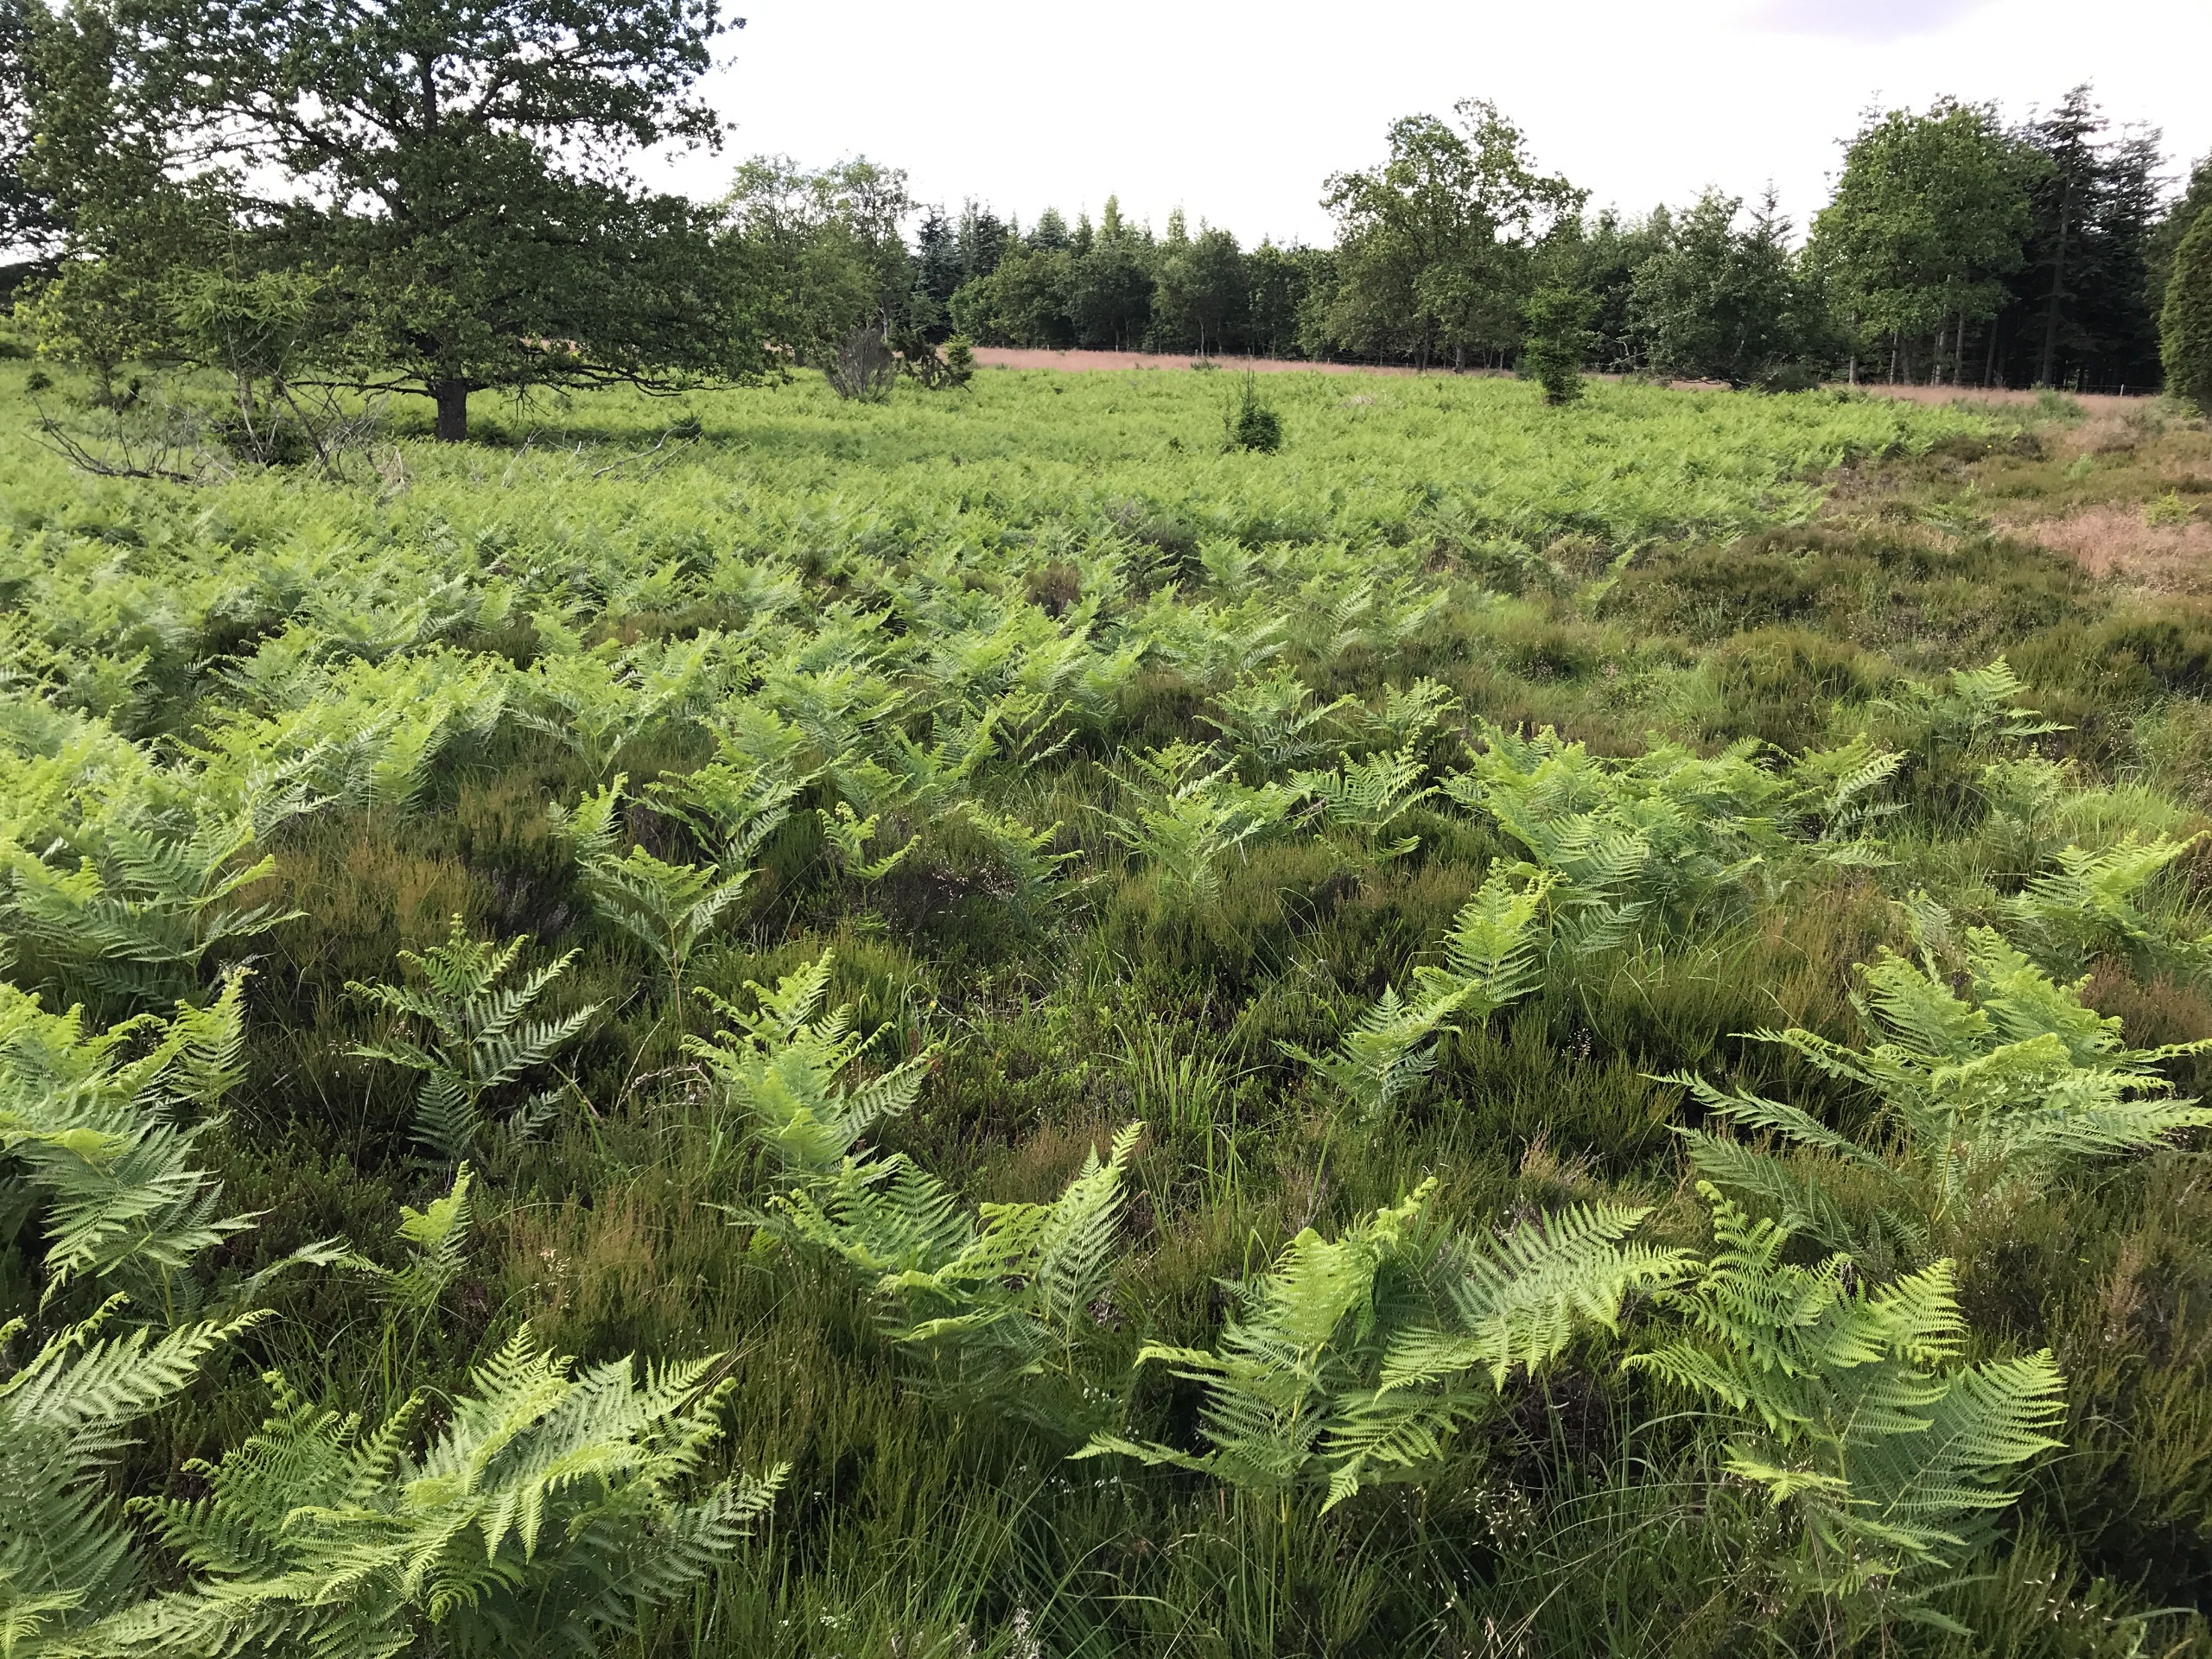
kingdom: Plantae
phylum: Tracheophyta
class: Polypodiopsida
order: Polypodiales
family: Dennstaedtiaceae
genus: Pteridium
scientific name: Pteridium aquilinum
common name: Ørnebregne
